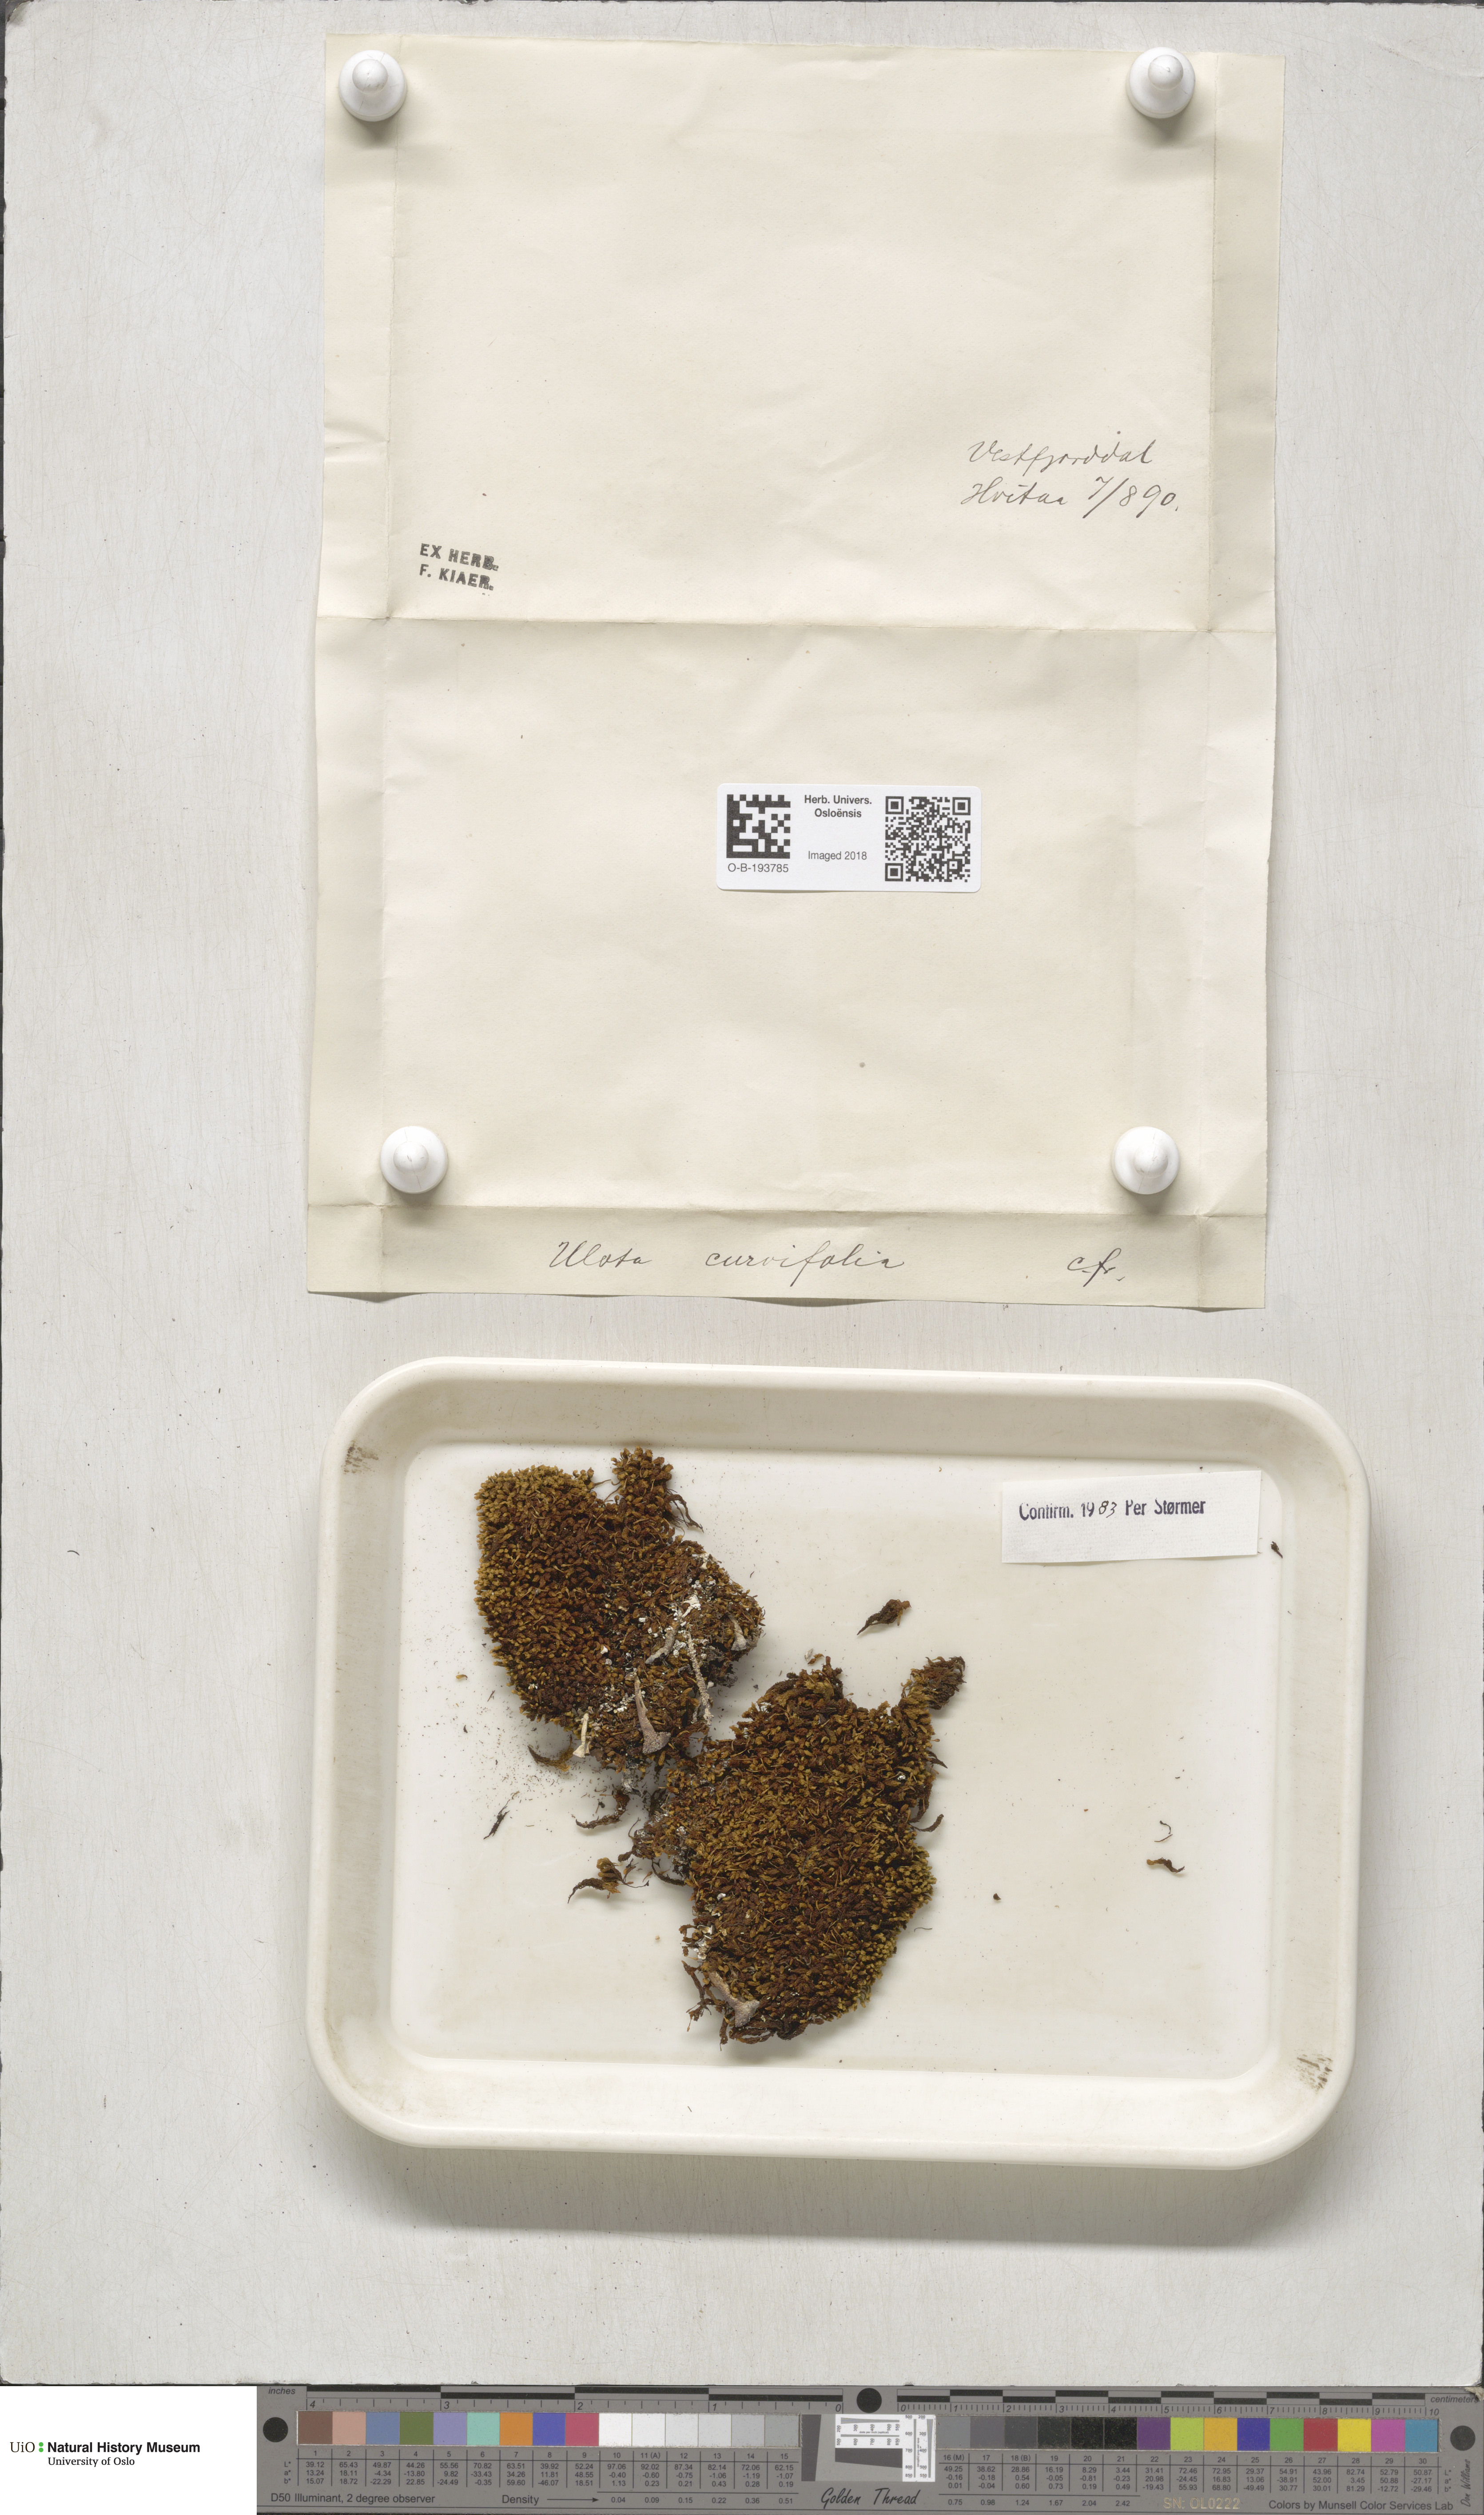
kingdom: Plantae
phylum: Bryophyta
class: Bryopsida
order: Orthotrichales
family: Orthotrichaceae
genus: Ulota
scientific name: Ulota curvifolia
